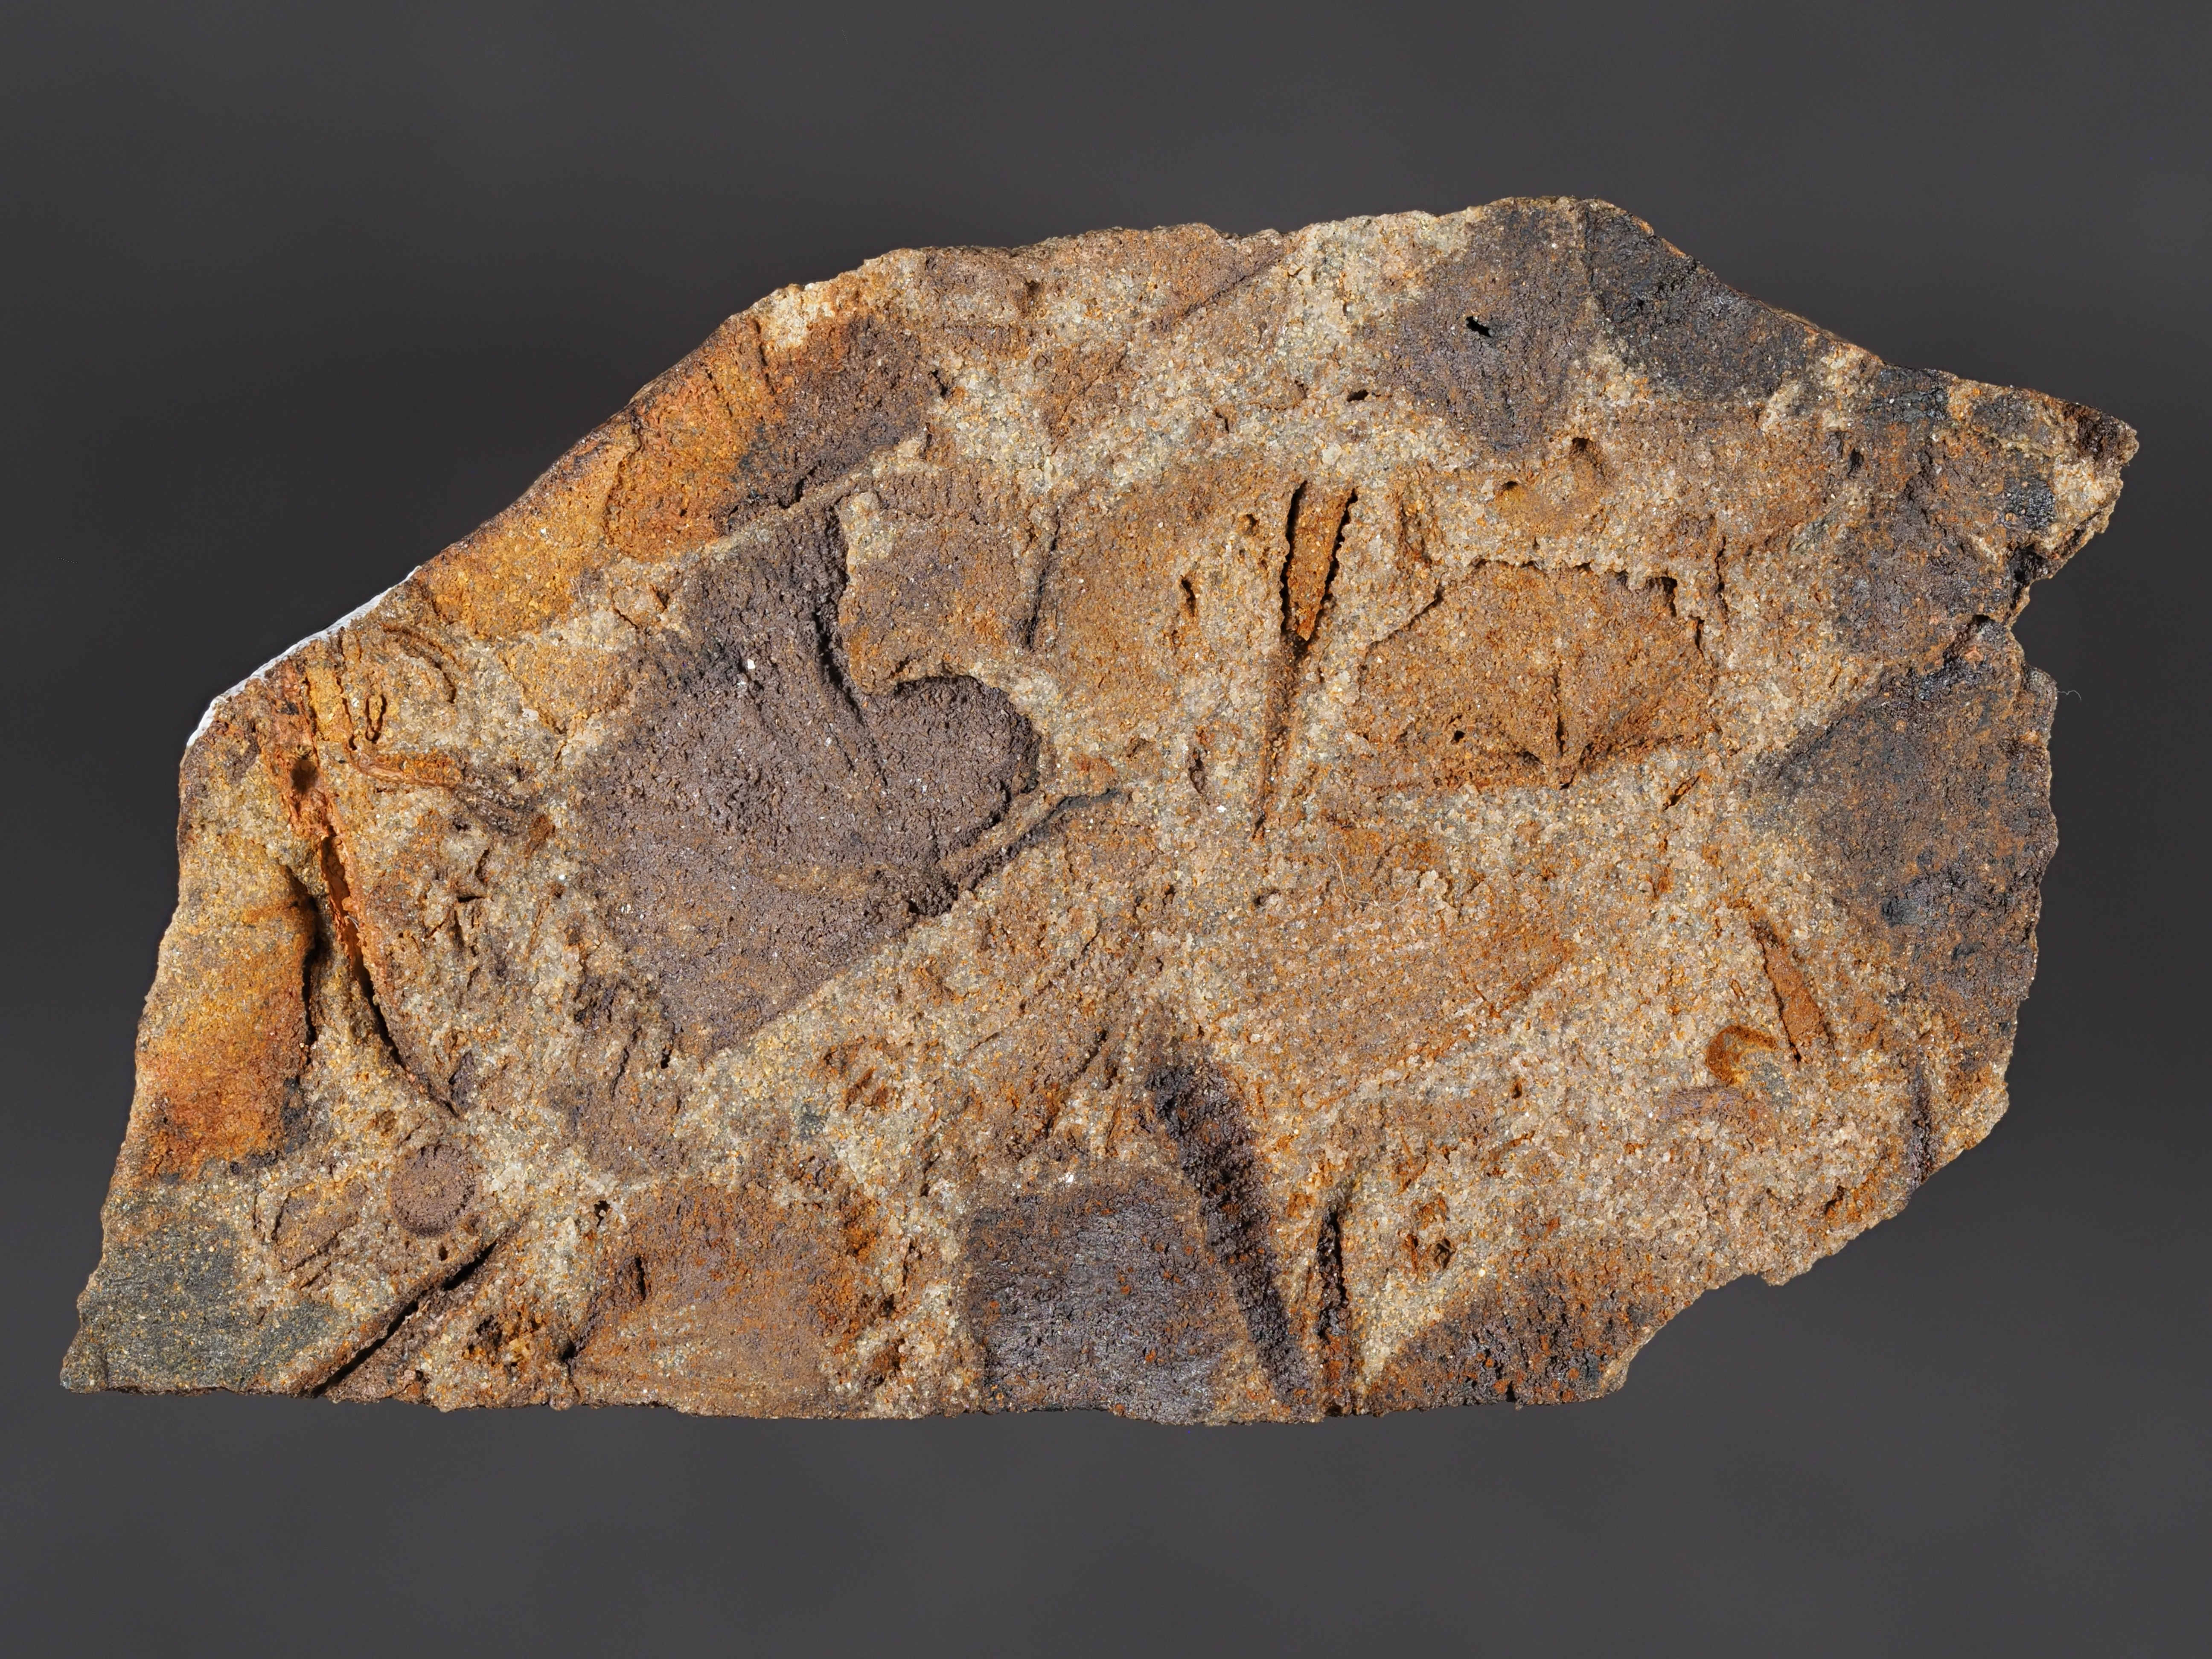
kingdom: Animalia
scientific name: Animalia
